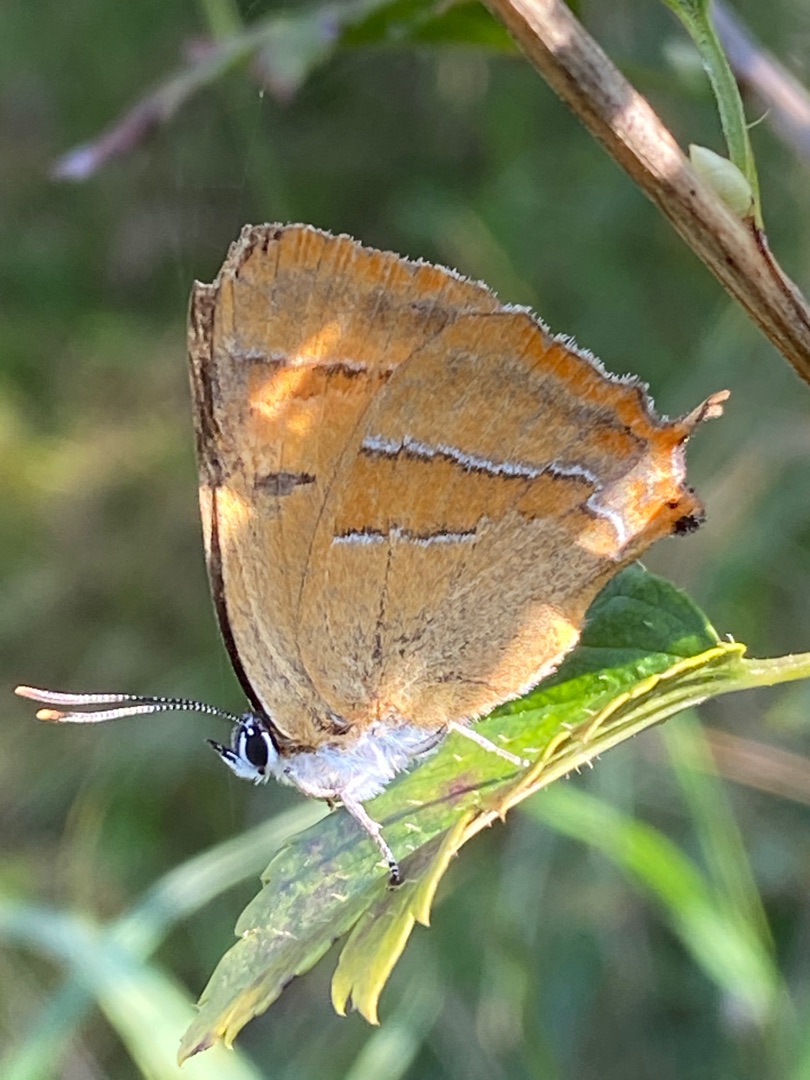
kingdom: Animalia
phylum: Arthropoda
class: Insecta
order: Lepidoptera
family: Lycaenidae
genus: Thecla
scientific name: Thecla betulae
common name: Guldhale
